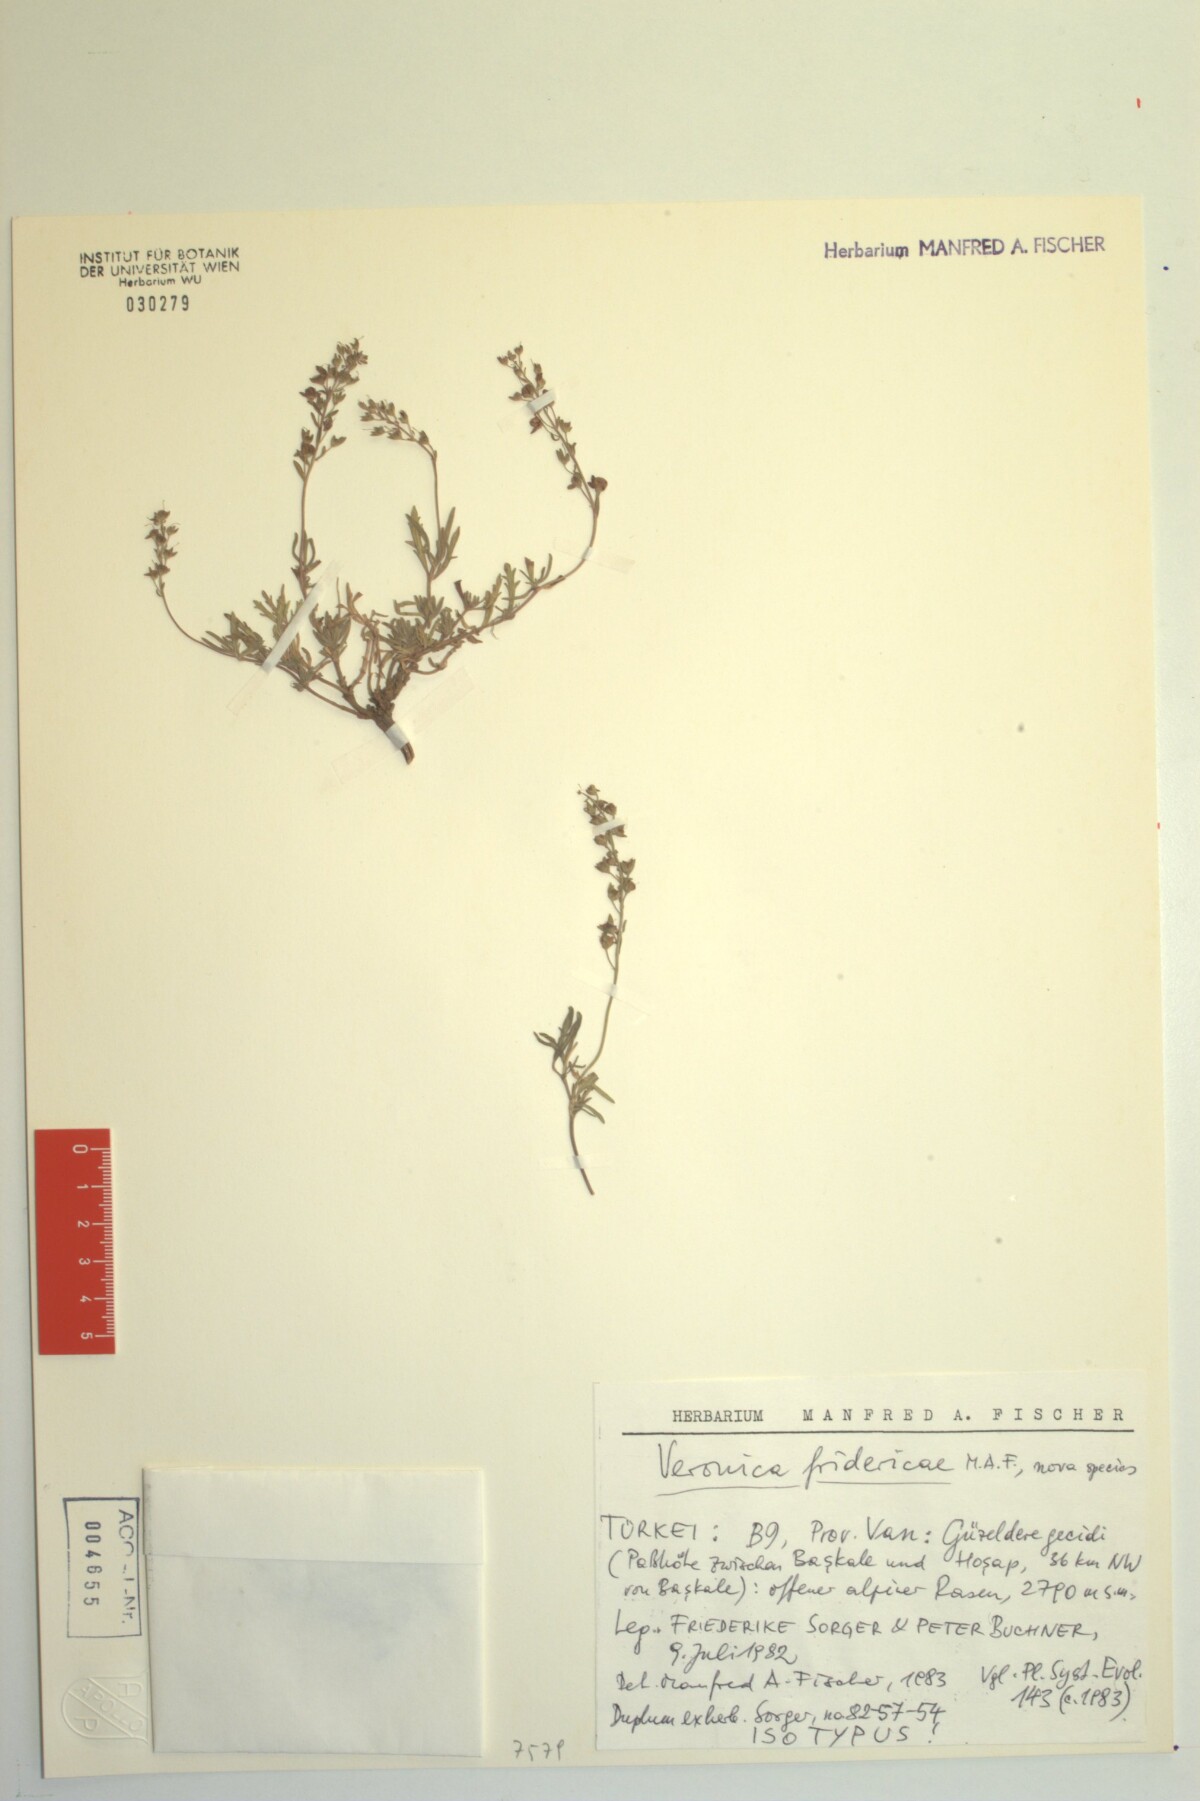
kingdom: Plantae
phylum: Tracheophyta
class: Magnoliopsida
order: Lamiales
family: Plantaginaceae
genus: Veronica
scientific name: Veronica fridericae
